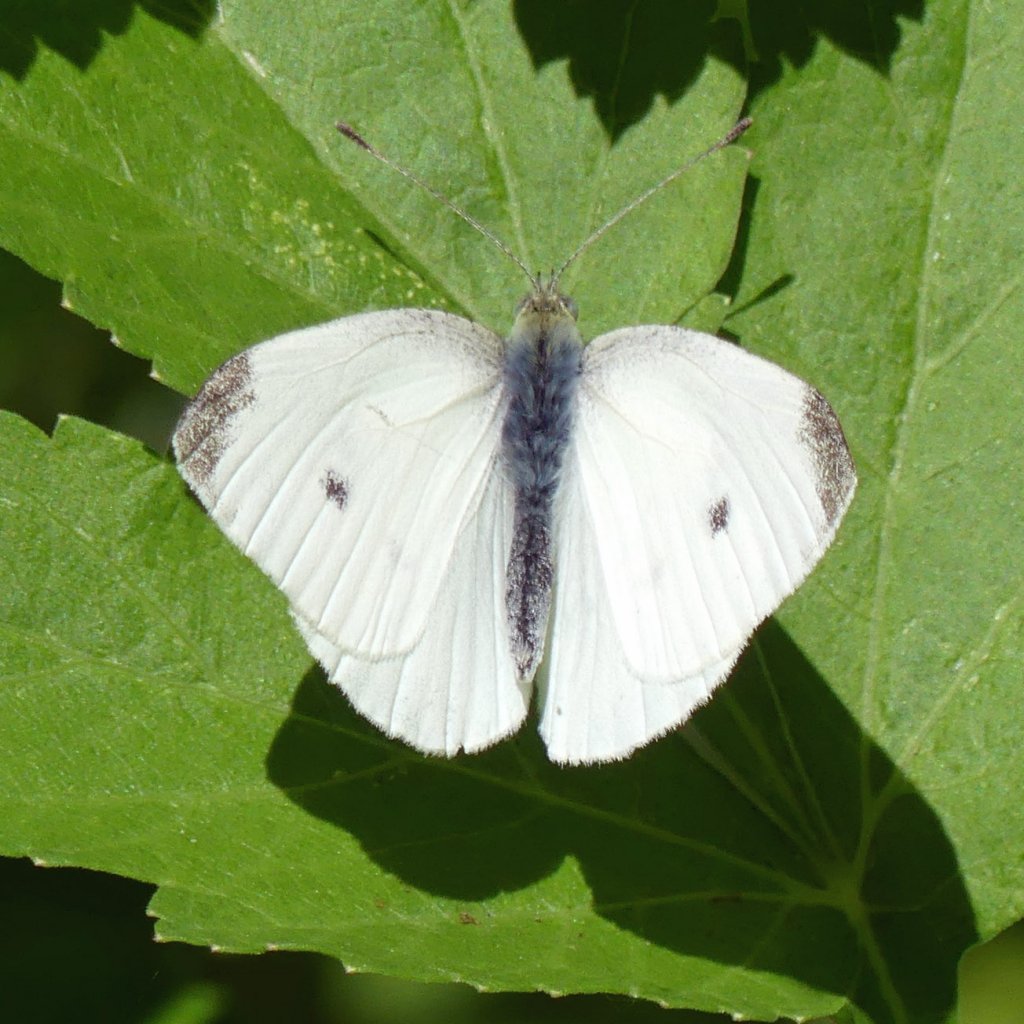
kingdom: Animalia
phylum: Arthropoda
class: Insecta
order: Lepidoptera
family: Pieridae
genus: Pieris
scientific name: Pieris rapae
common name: Cabbage White
